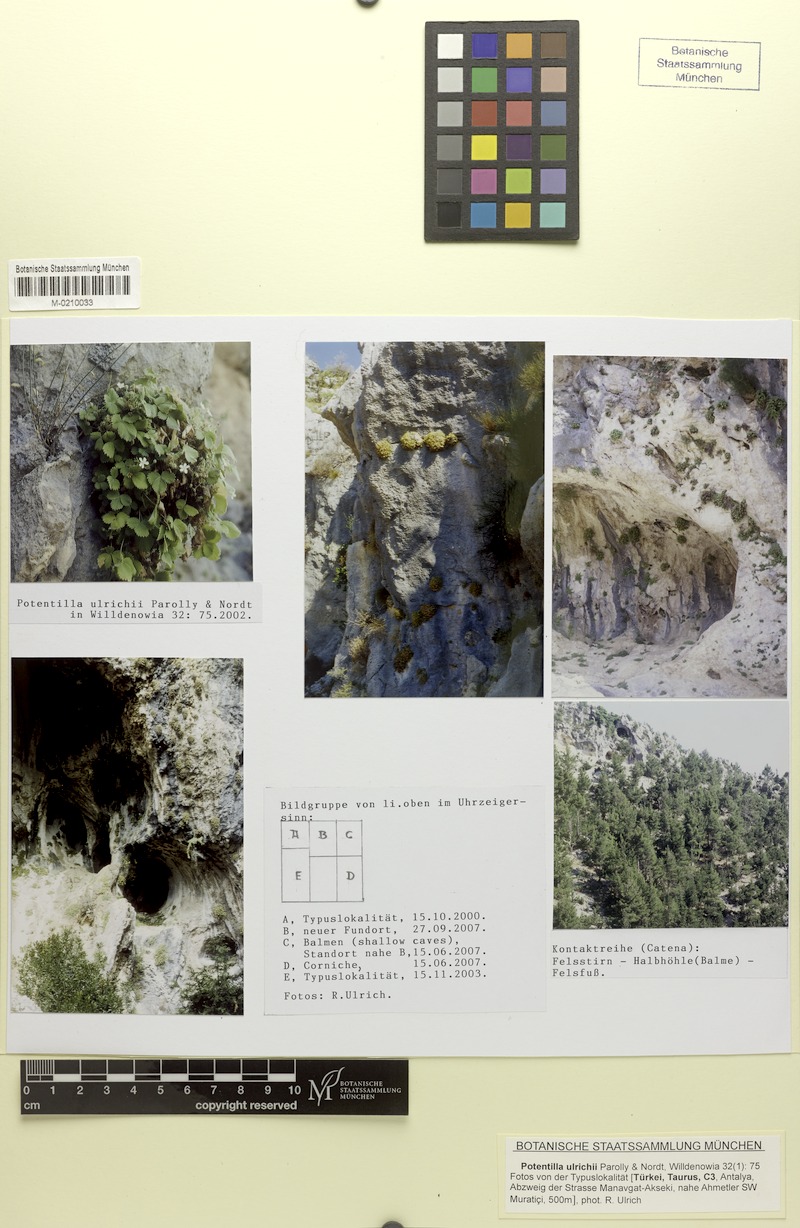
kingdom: Plantae
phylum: Tracheophyta
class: Magnoliopsida
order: Rosales
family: Rosaceae
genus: Potentilla
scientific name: Potentilla ulrichii
